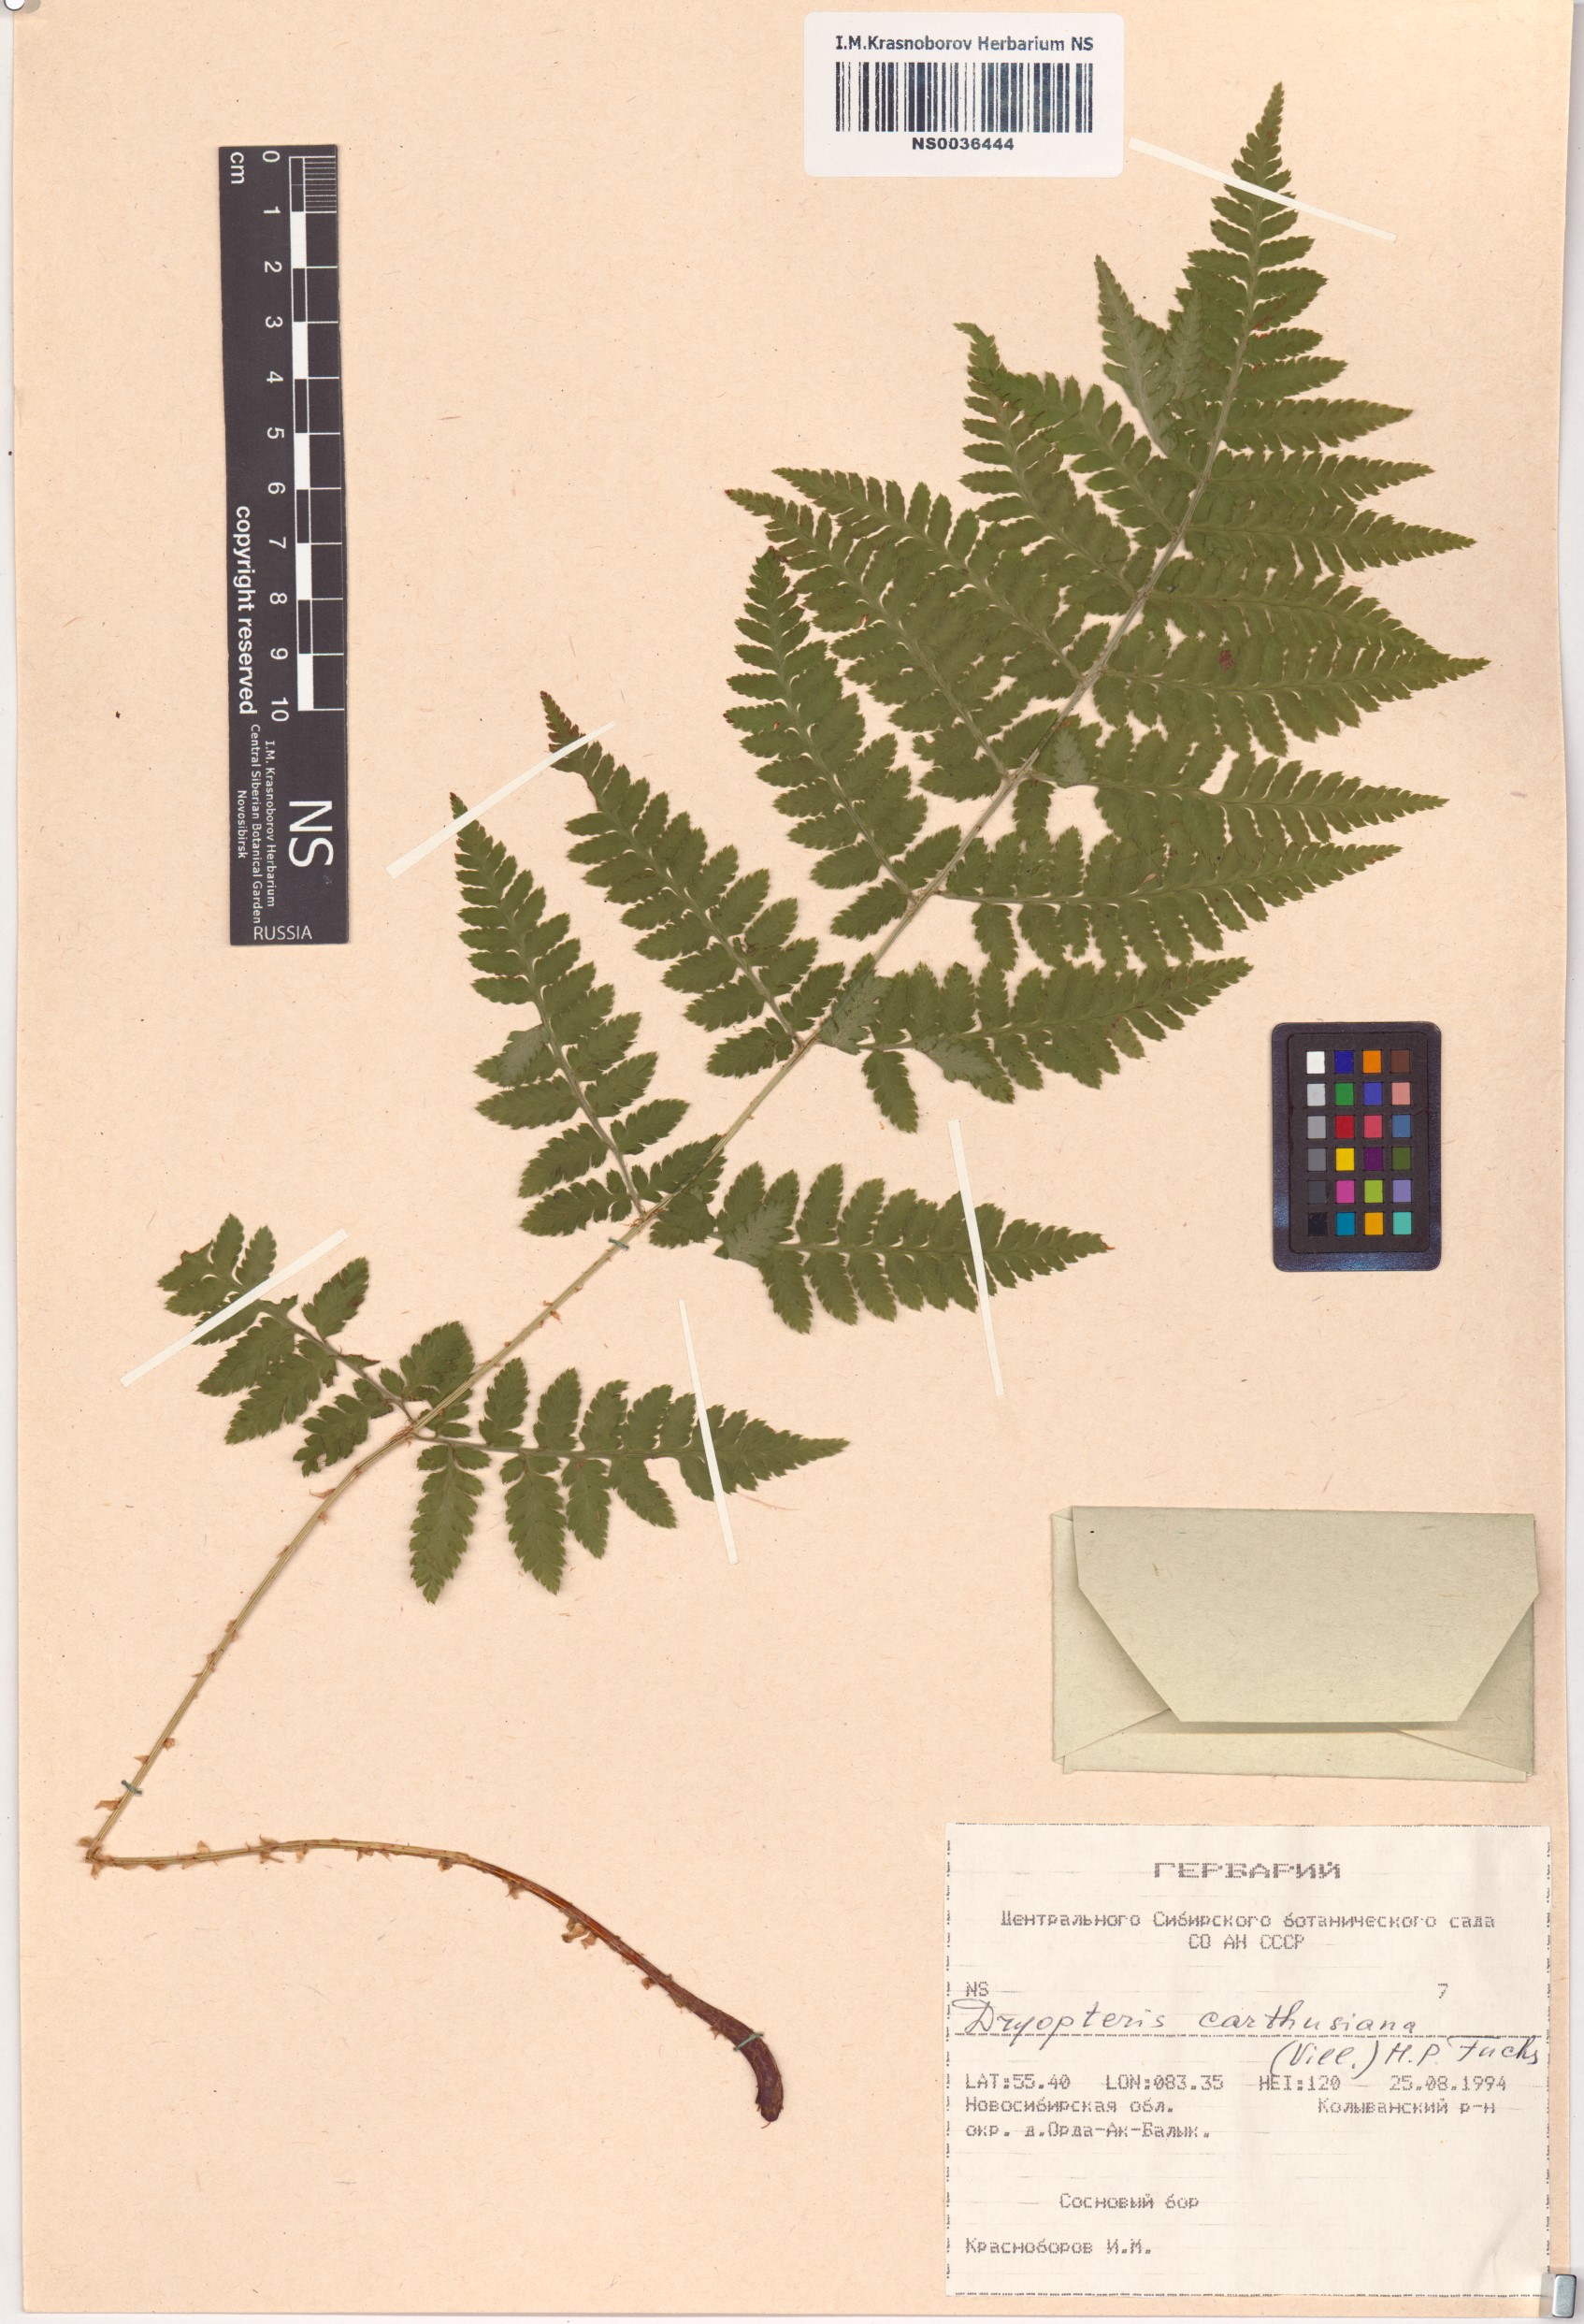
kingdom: Plantae
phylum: Tracheophyta
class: Polypodiopsida
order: Polypodiales
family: Dryopteridaceae
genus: Dryopteris
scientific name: Dryopteris carthusiana
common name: Narrow buckler-fern
